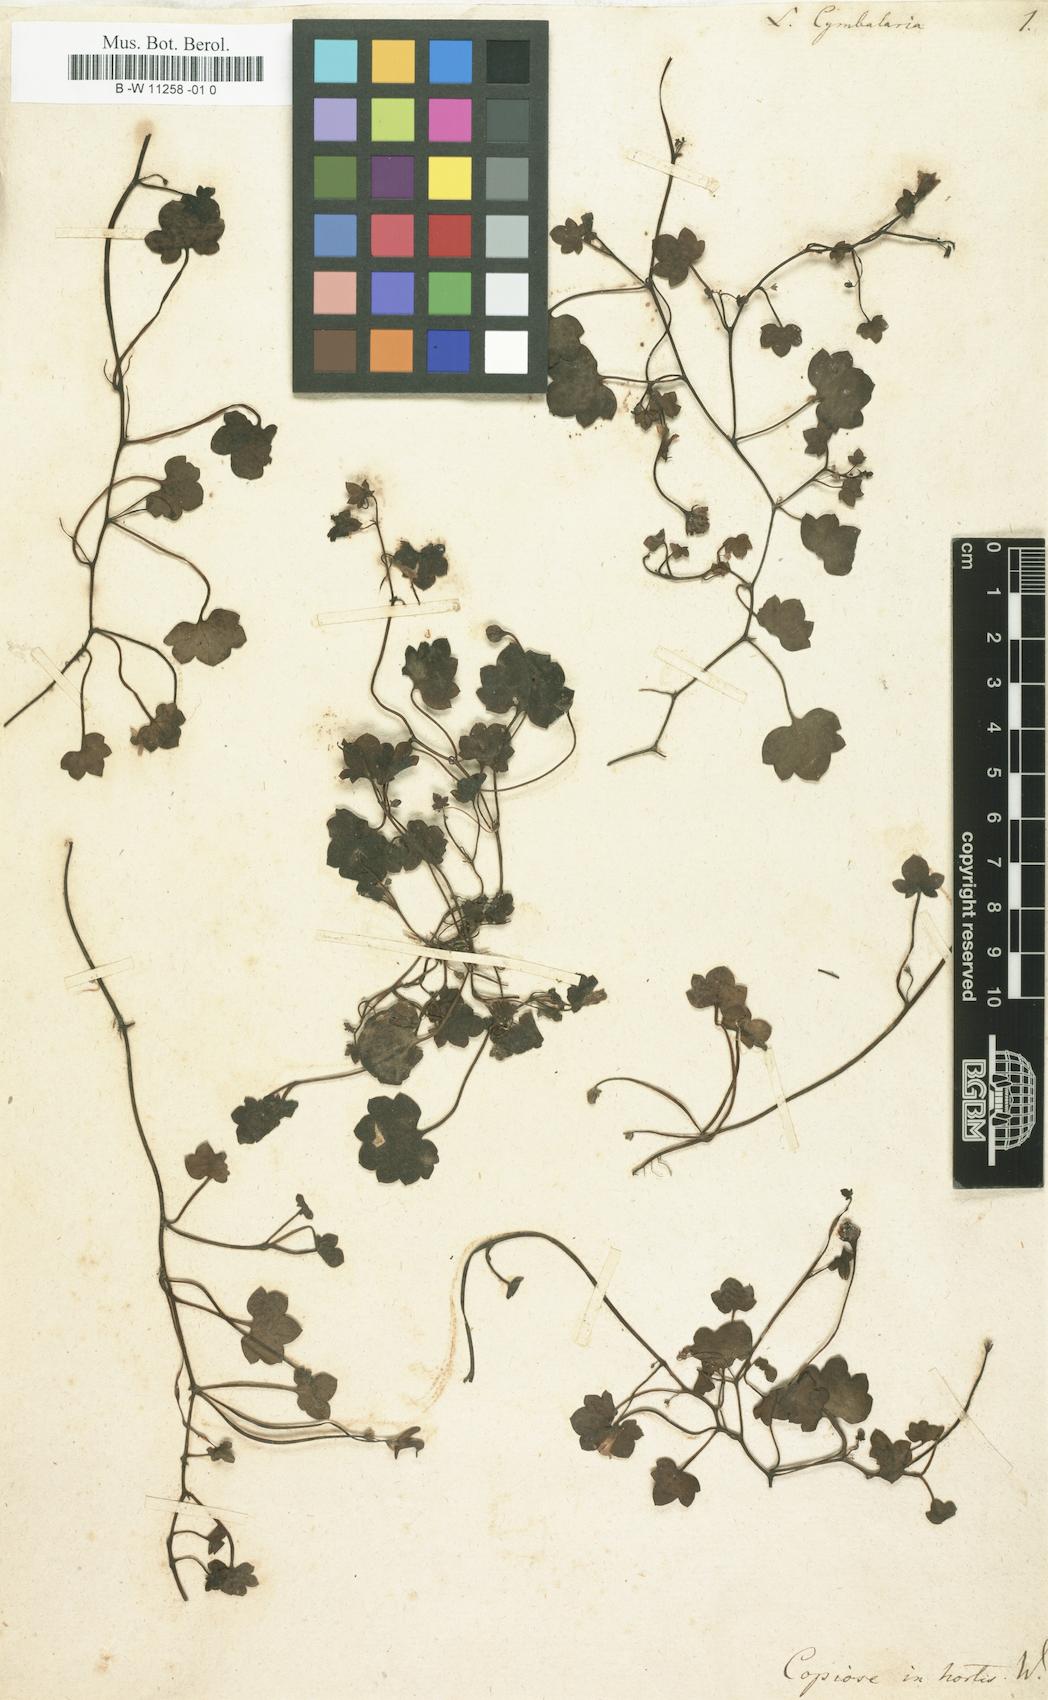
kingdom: Plantae
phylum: Tracheophyta
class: Magnoliopsida
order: Lamiales
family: Plantaginaceae
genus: Cymbalaria
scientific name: Cymbalaria muralis
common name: Ivy-leaved toadflax
